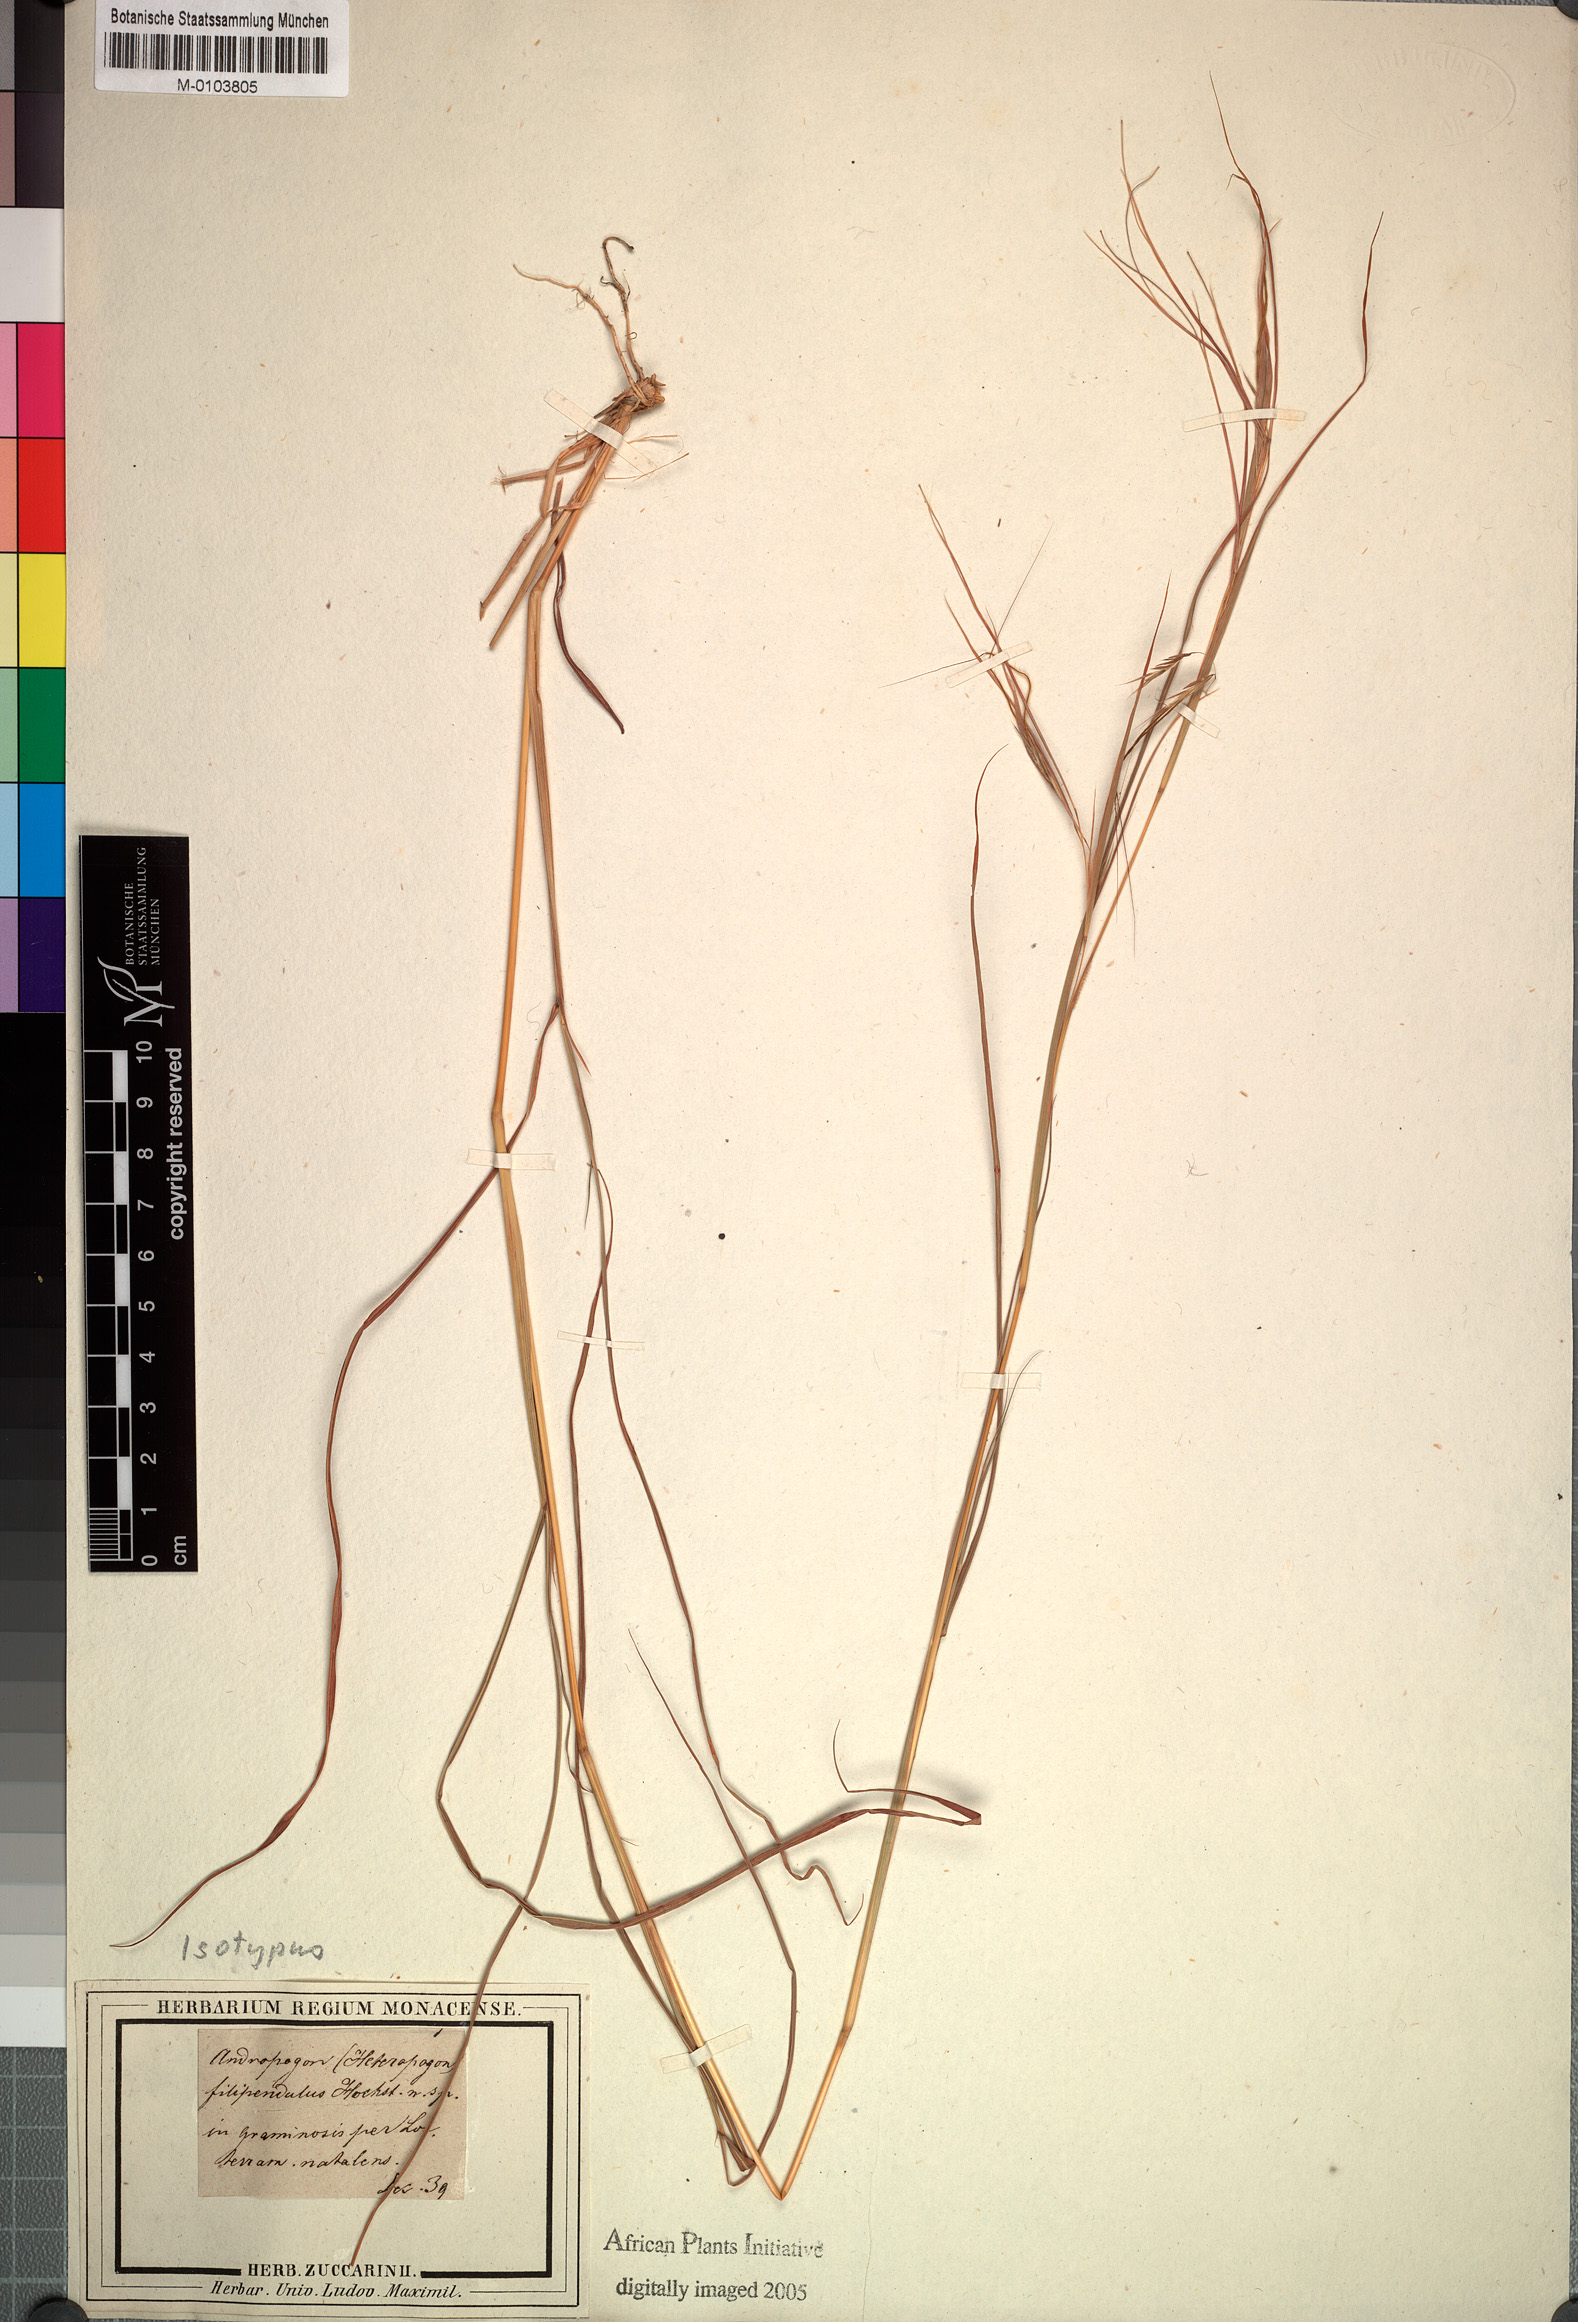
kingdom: Plantae
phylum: Tracheophyta
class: Liliopsida
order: Poales
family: Poaceae
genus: Hyparrhenia
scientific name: Hyparrhenia filipendula
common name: Tambookie grass
